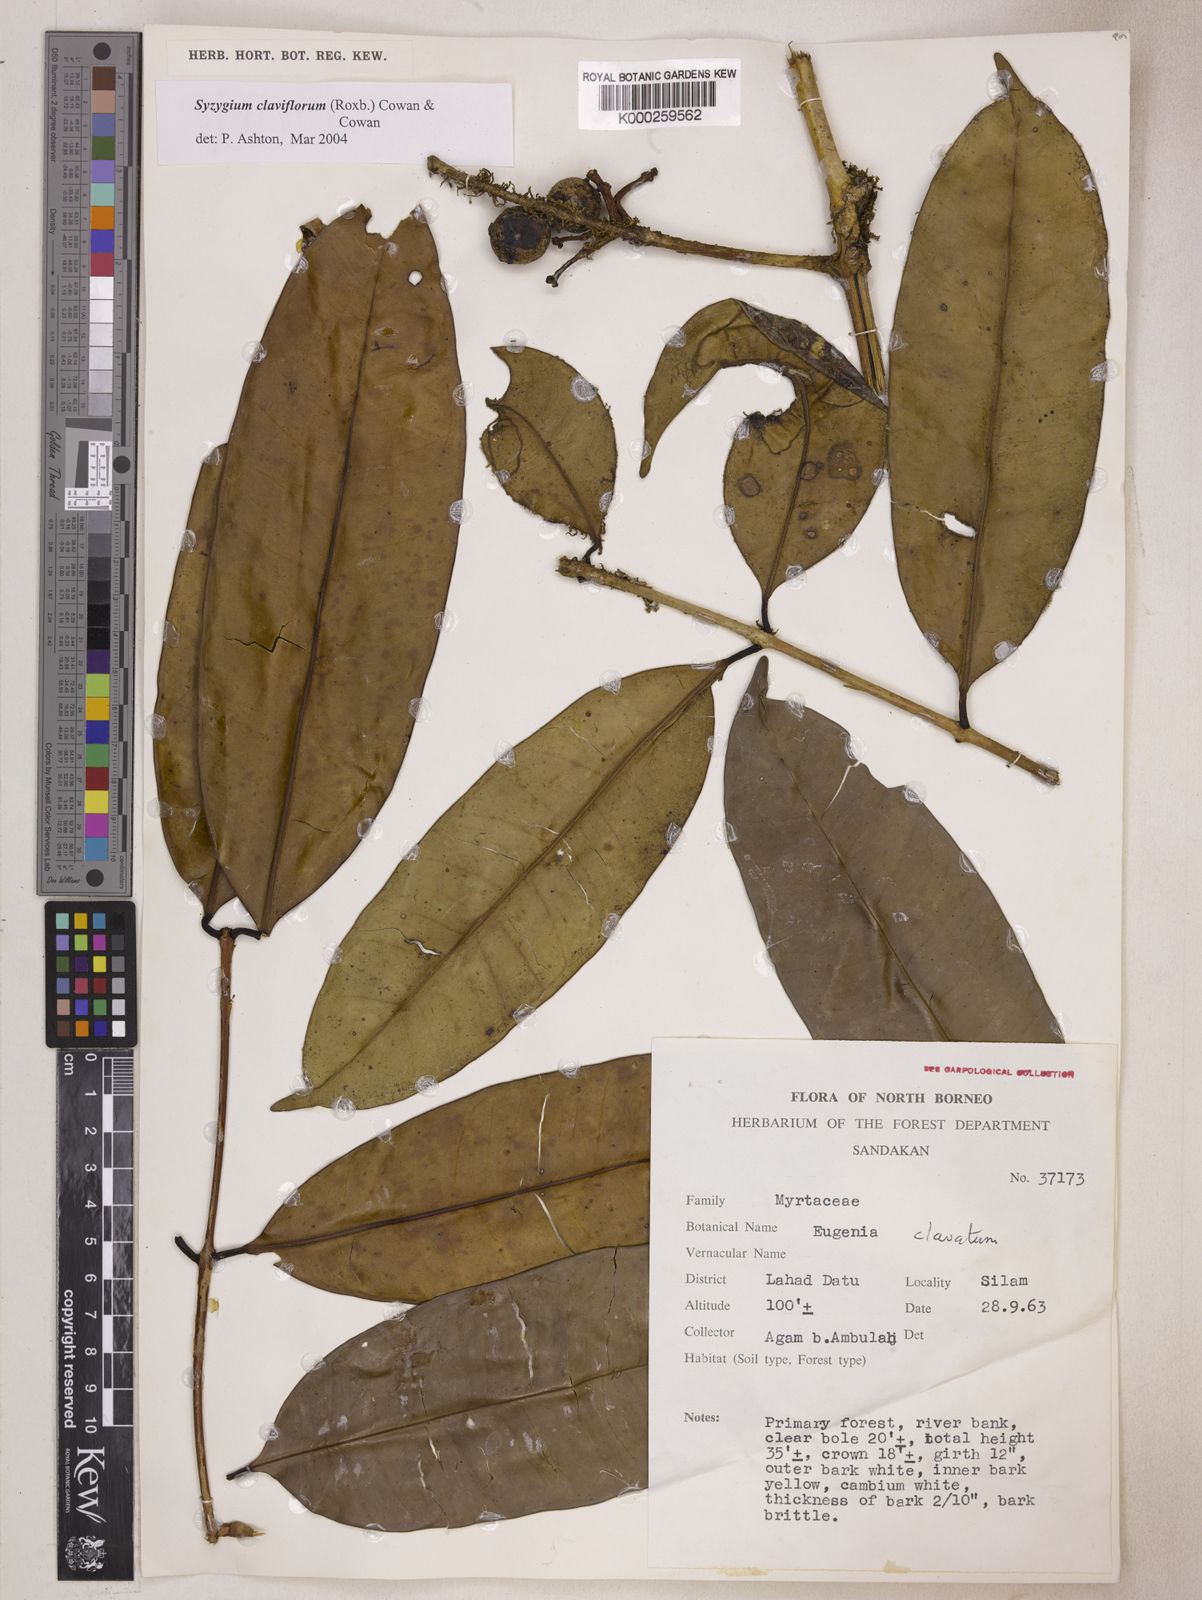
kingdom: Plantae
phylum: Tracheophyta
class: Magnoliopsida
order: Myrtales
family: Myrtaceae
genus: Syzygium
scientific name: Syzygium claviflorum
